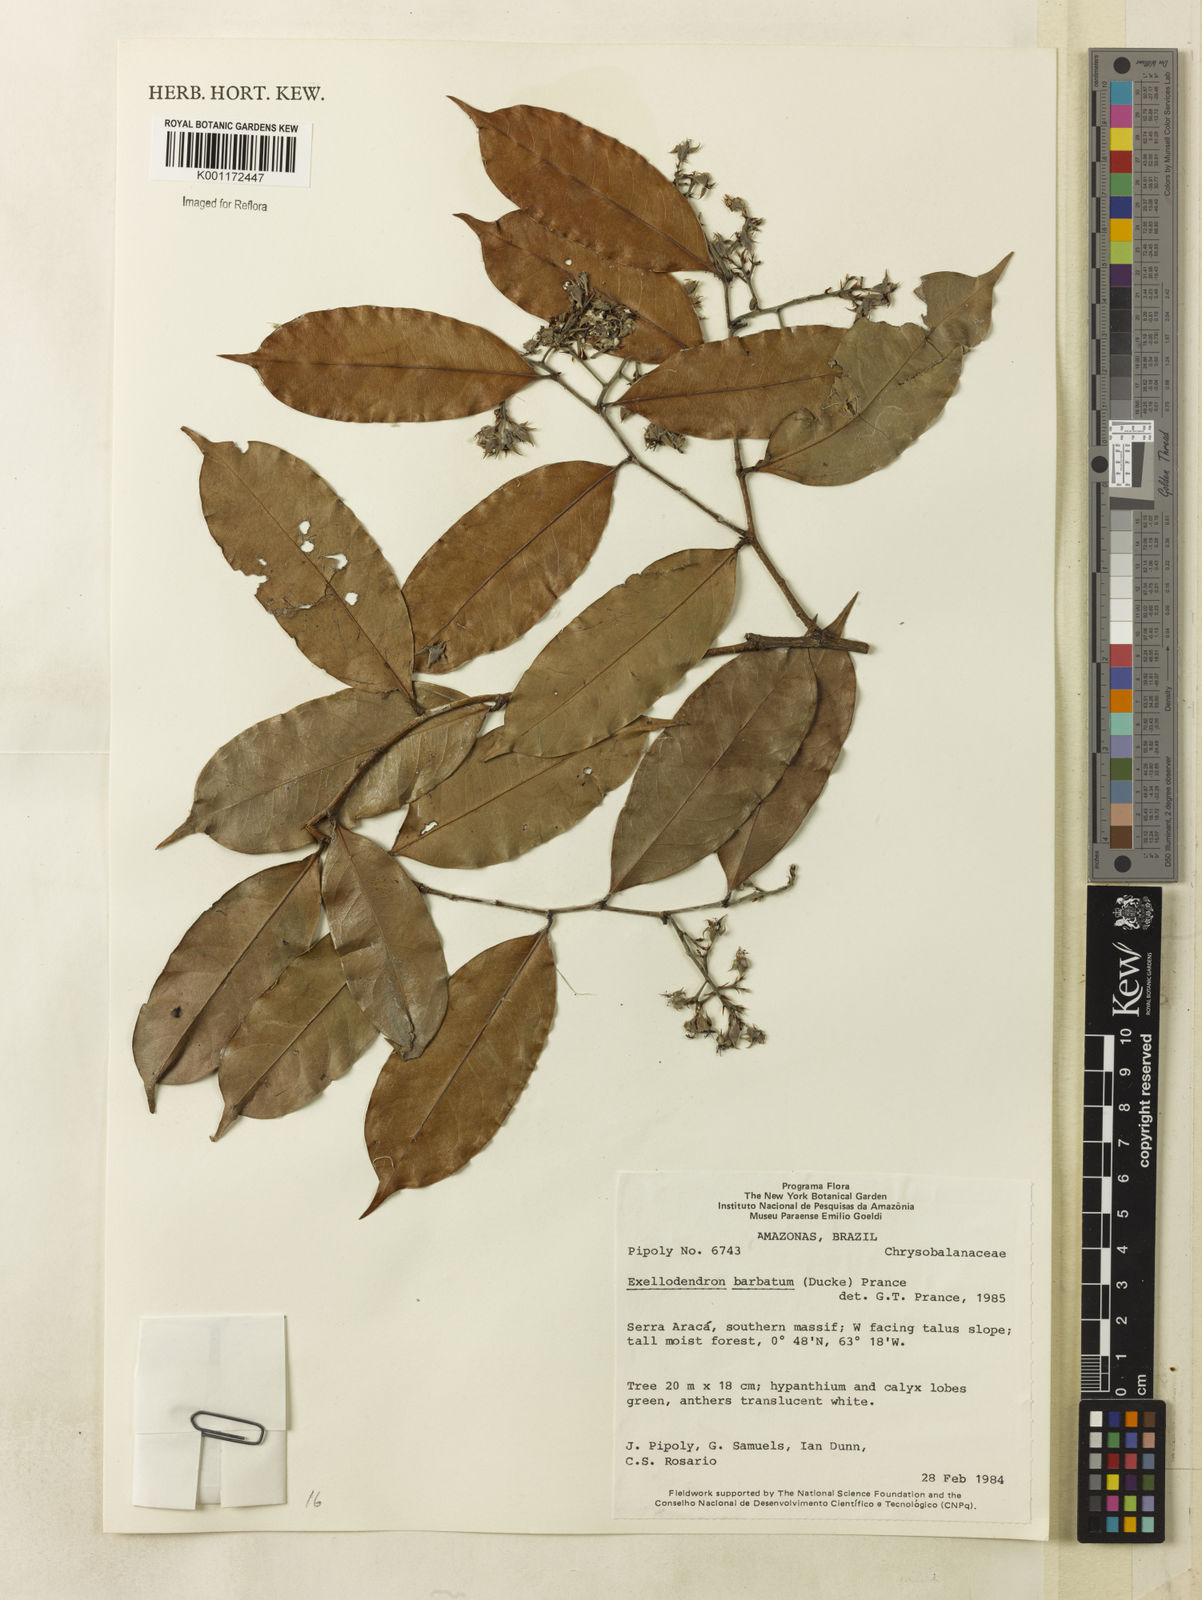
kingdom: Plantae
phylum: Tracheophyta
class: Magnoliopsida
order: Malpighiales
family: Chrysobalanaceae
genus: Atuna
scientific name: Atuna
